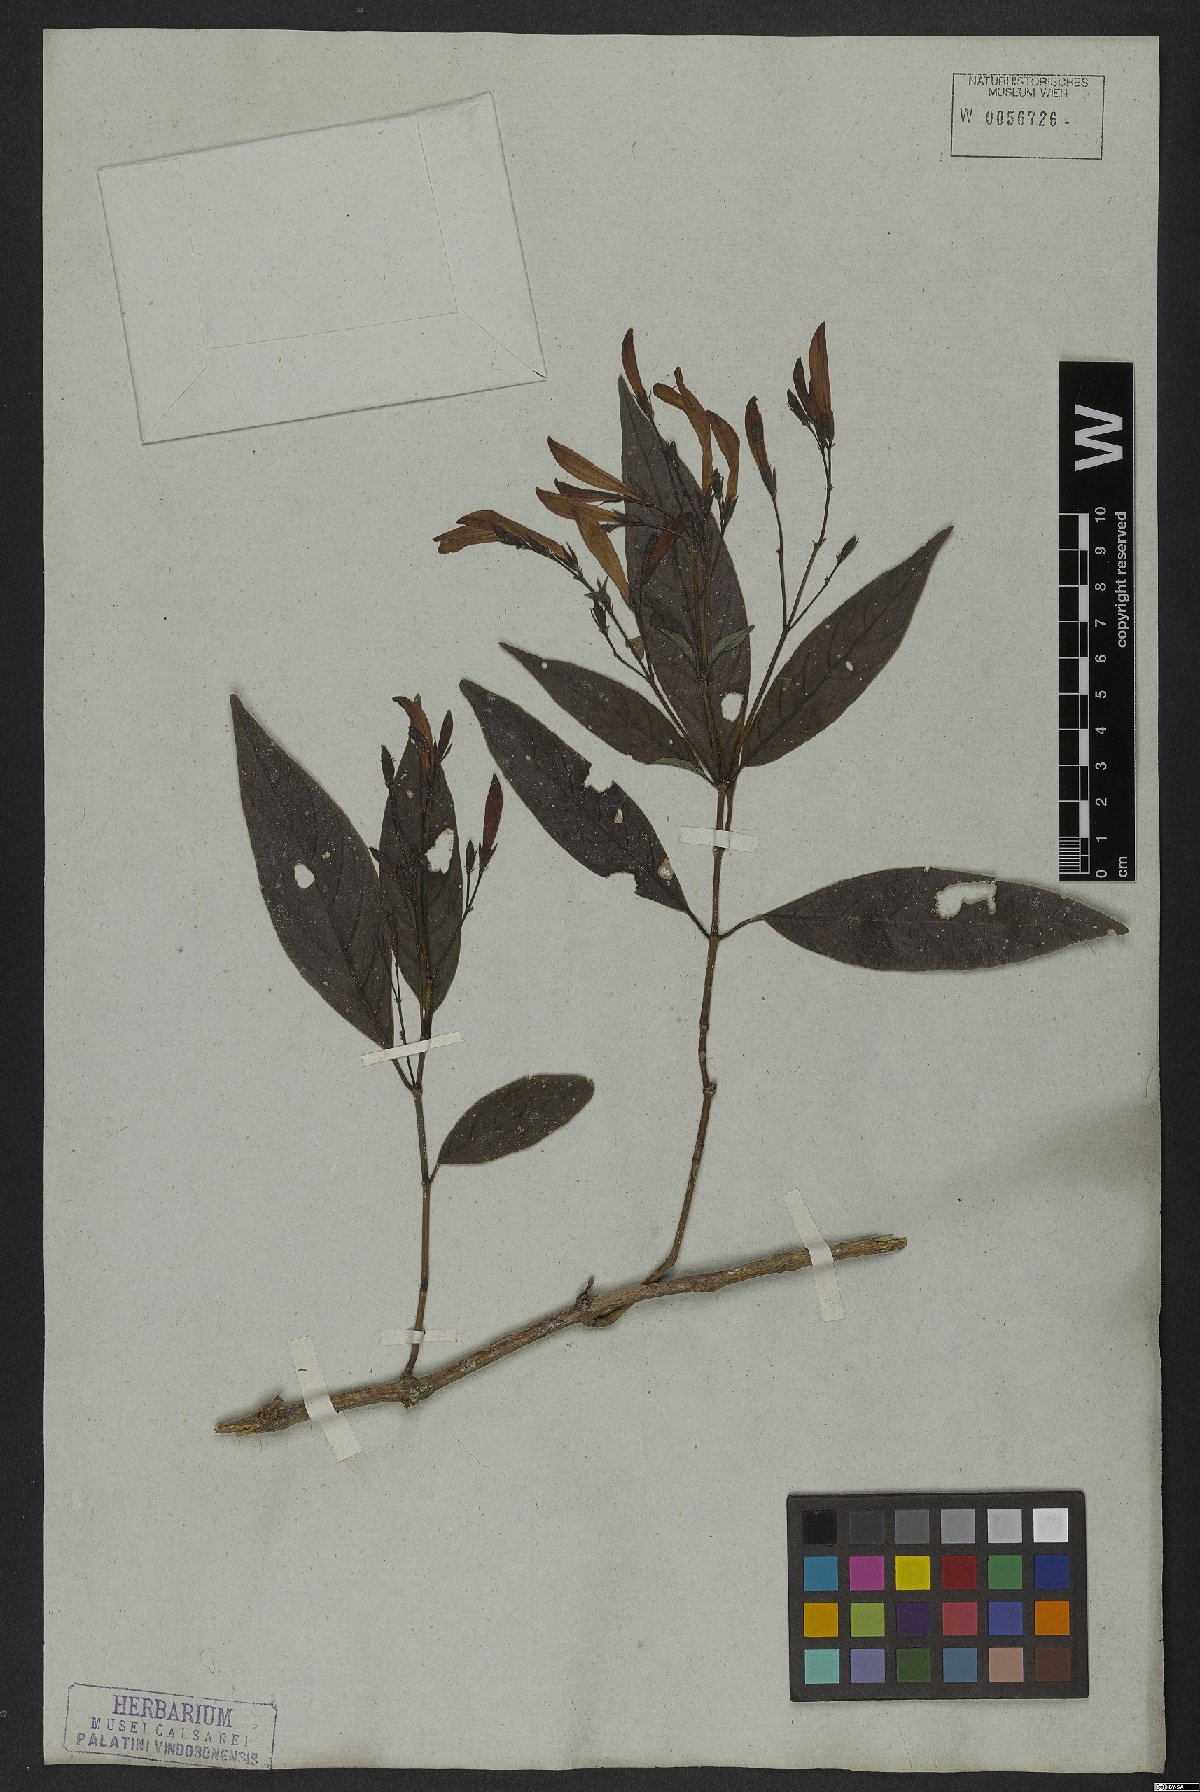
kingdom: Plantae
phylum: Tracheophyta
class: Magnoliopsida
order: Lamiales
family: Acanthaceae
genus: Justicia
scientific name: Justicia polita
